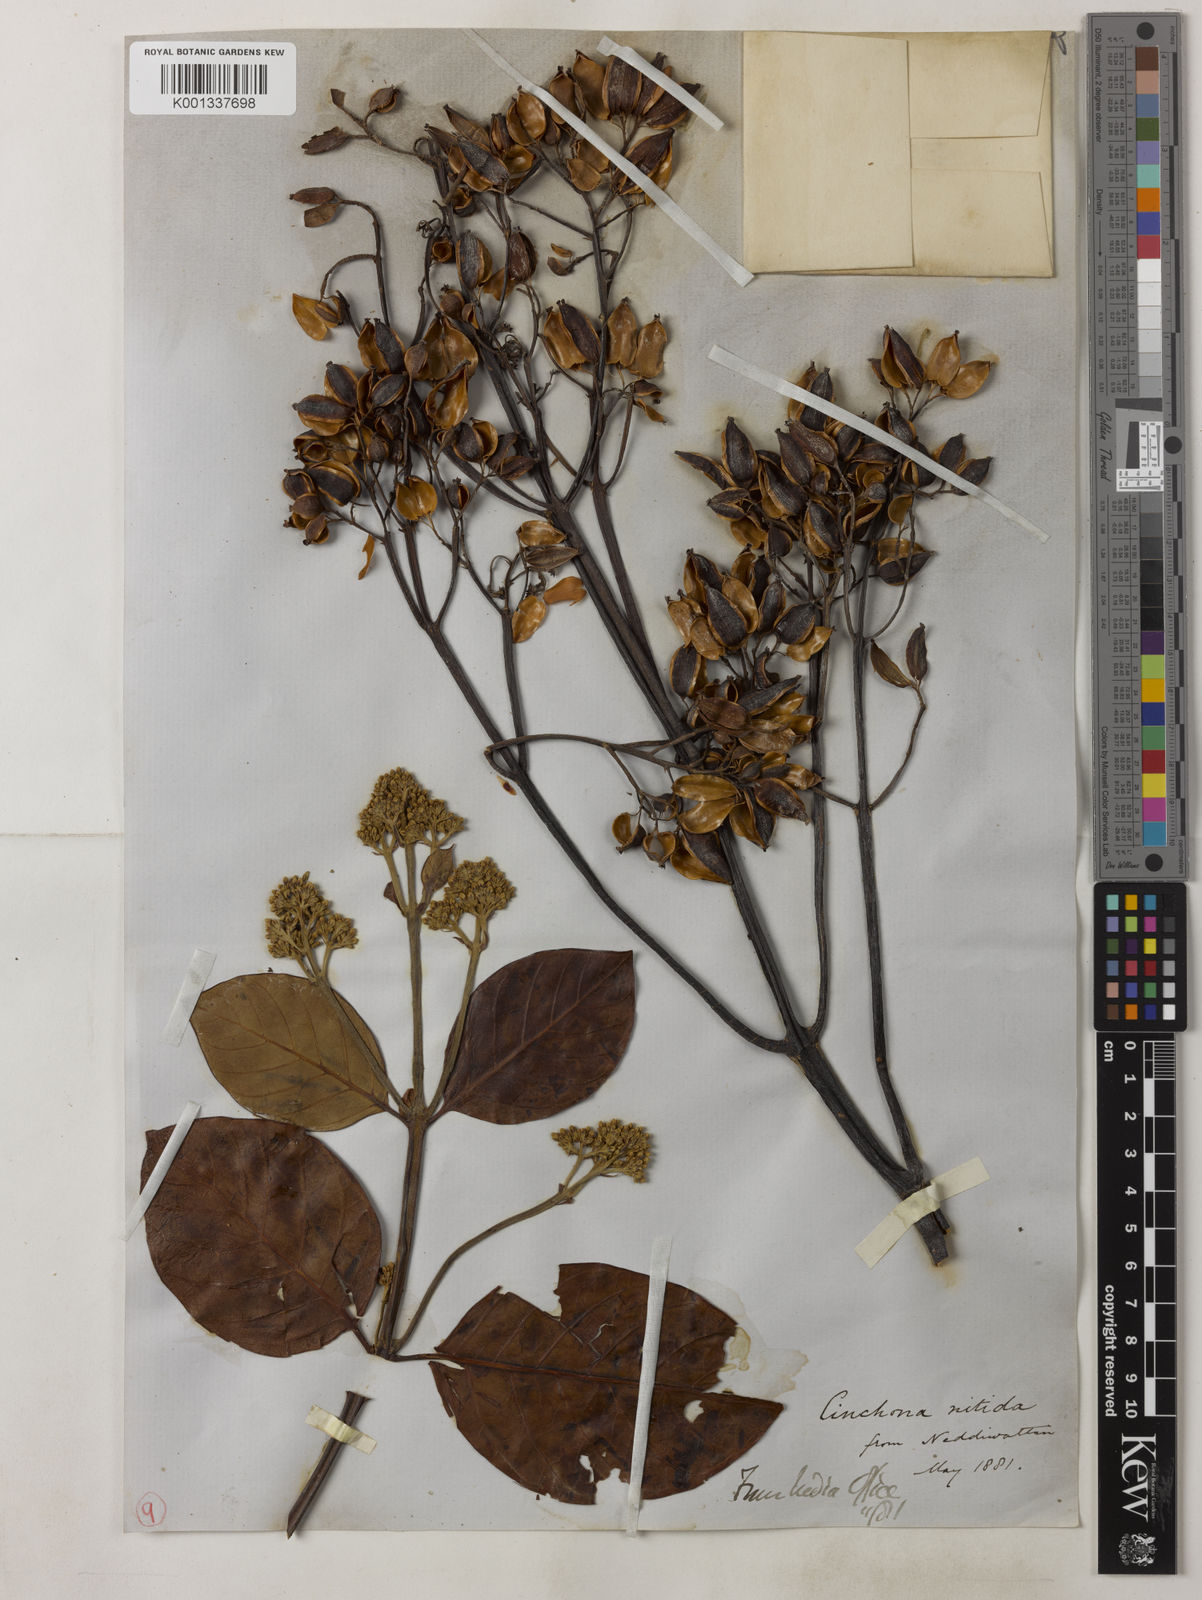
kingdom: Plantae
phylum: Tracheophyta
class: Magnoliopsida
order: Gentianales
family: Rubiaceae
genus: Cinchona
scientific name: Cinchona nitida
